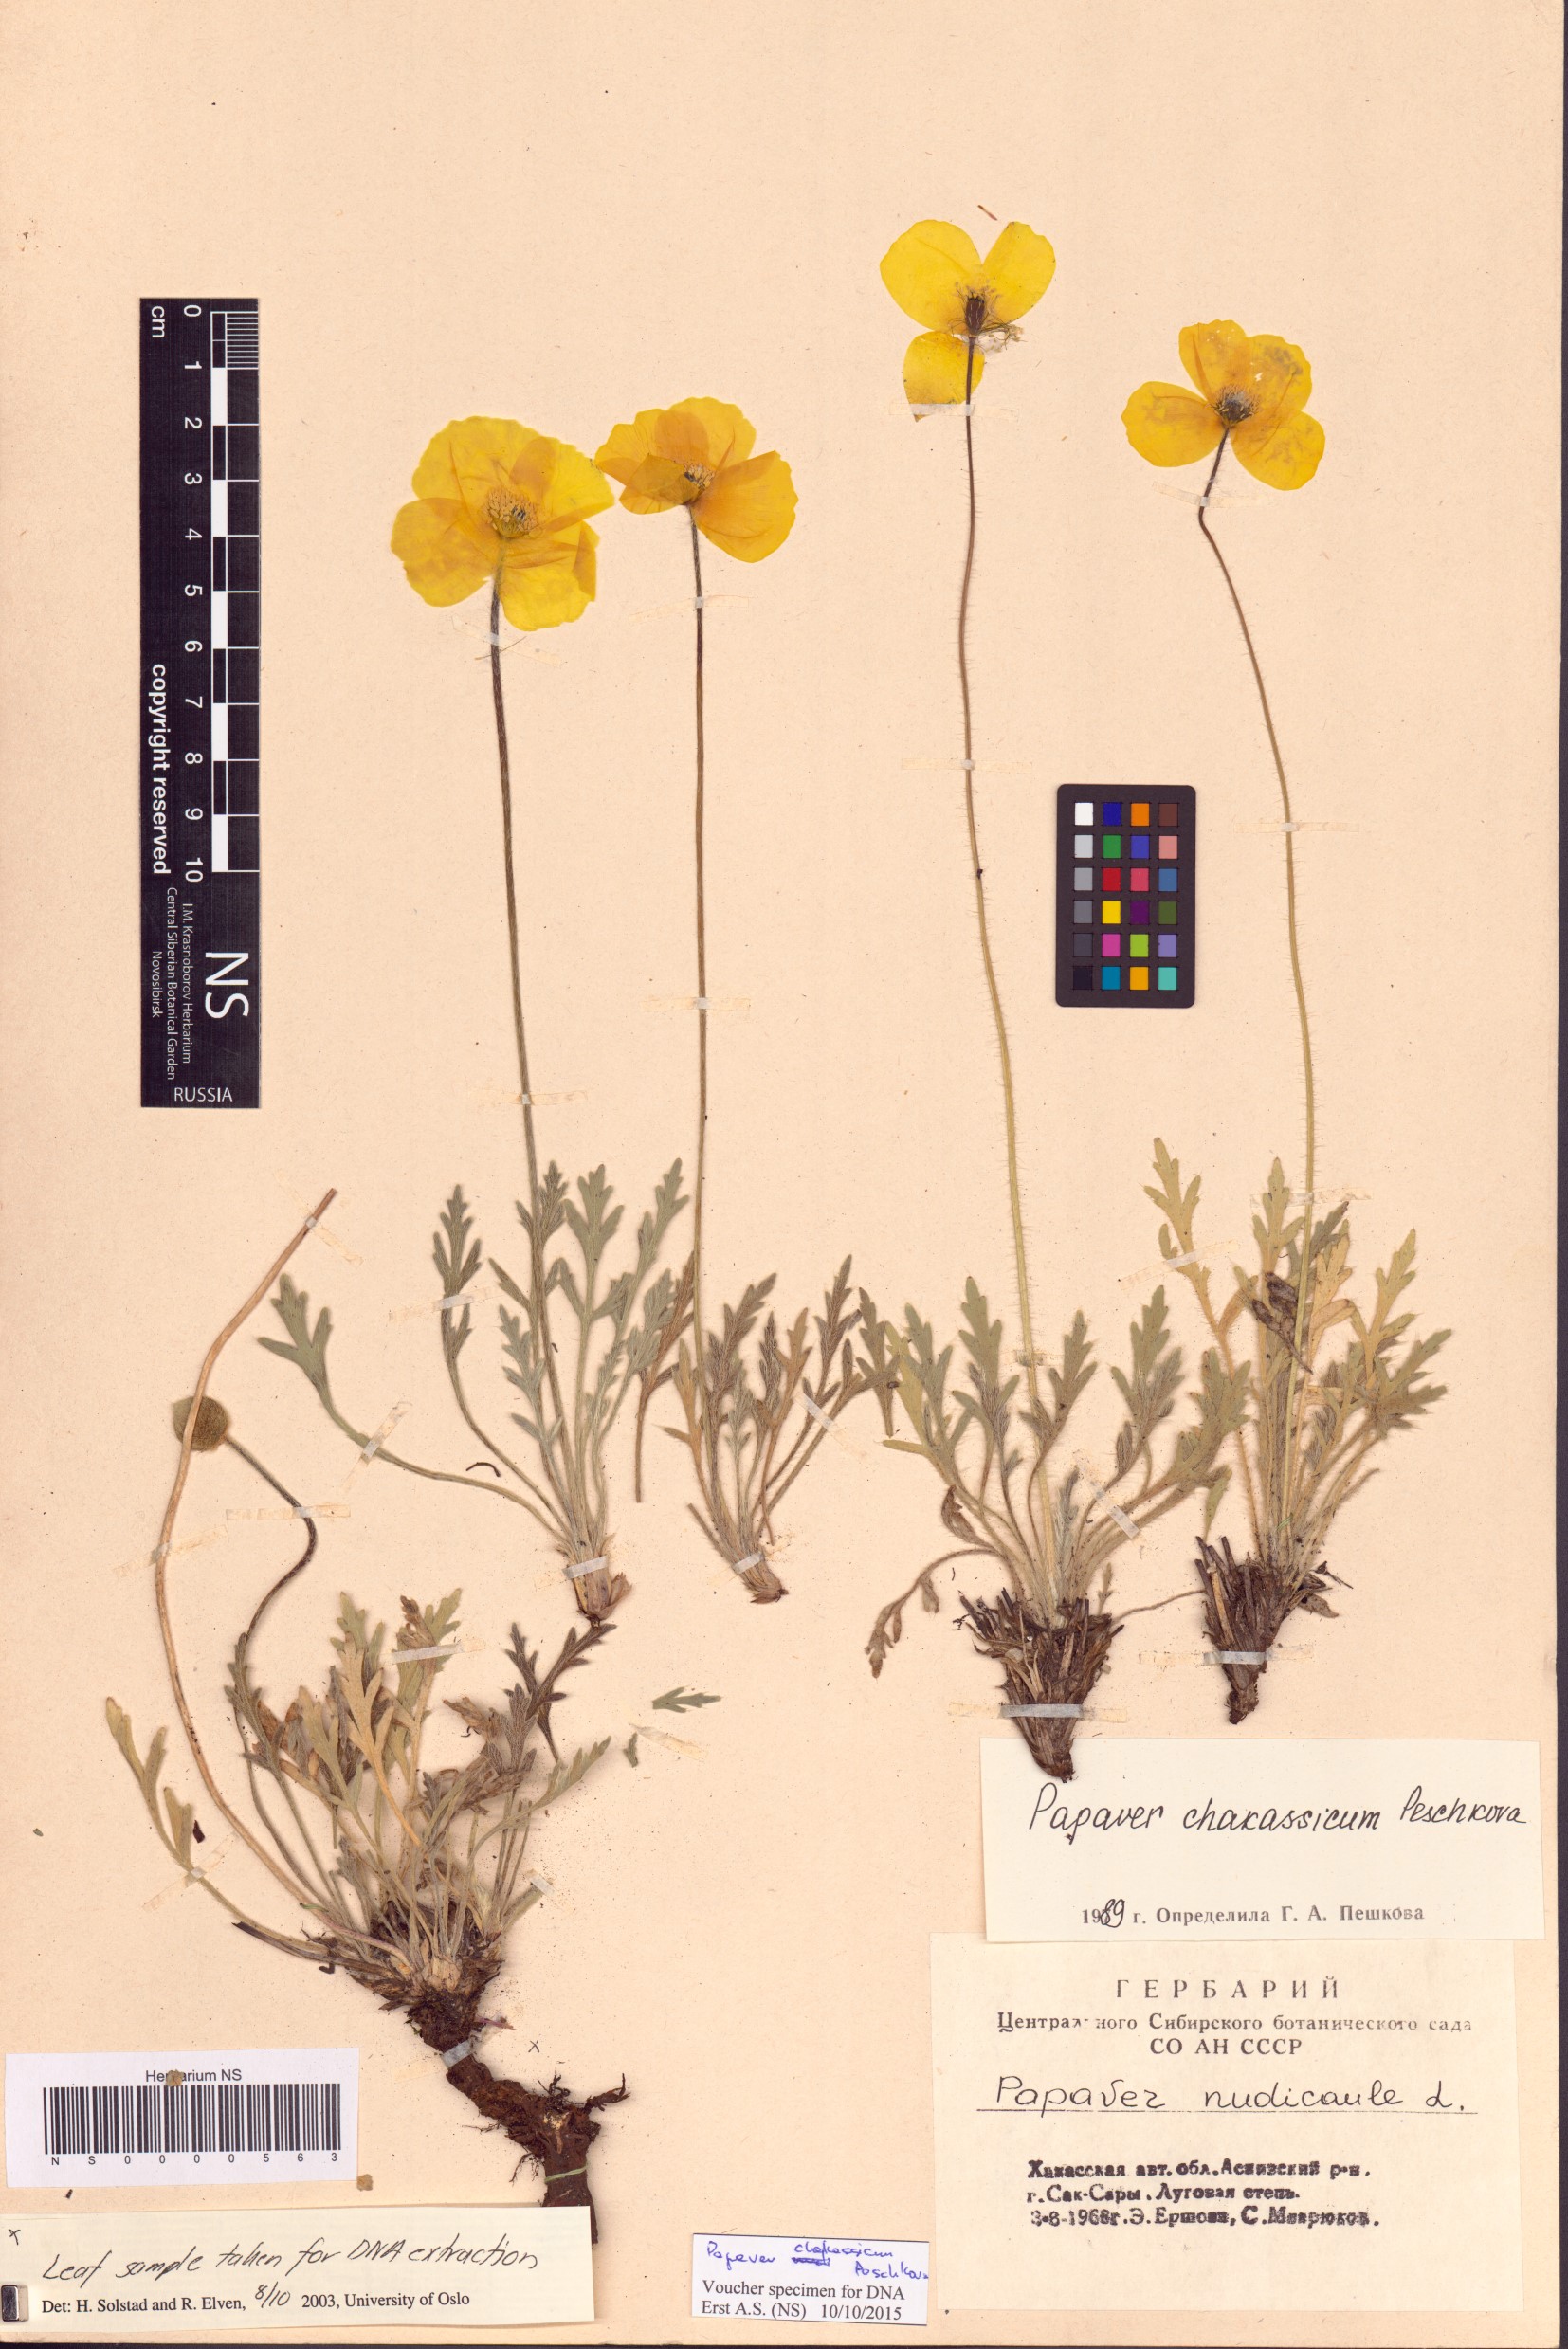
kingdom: Plantae
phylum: Tracheophyta
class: Magnoliopsida
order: Ranunculales
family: Papaveraceae
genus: Papaver
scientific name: Papaver chakassicum
